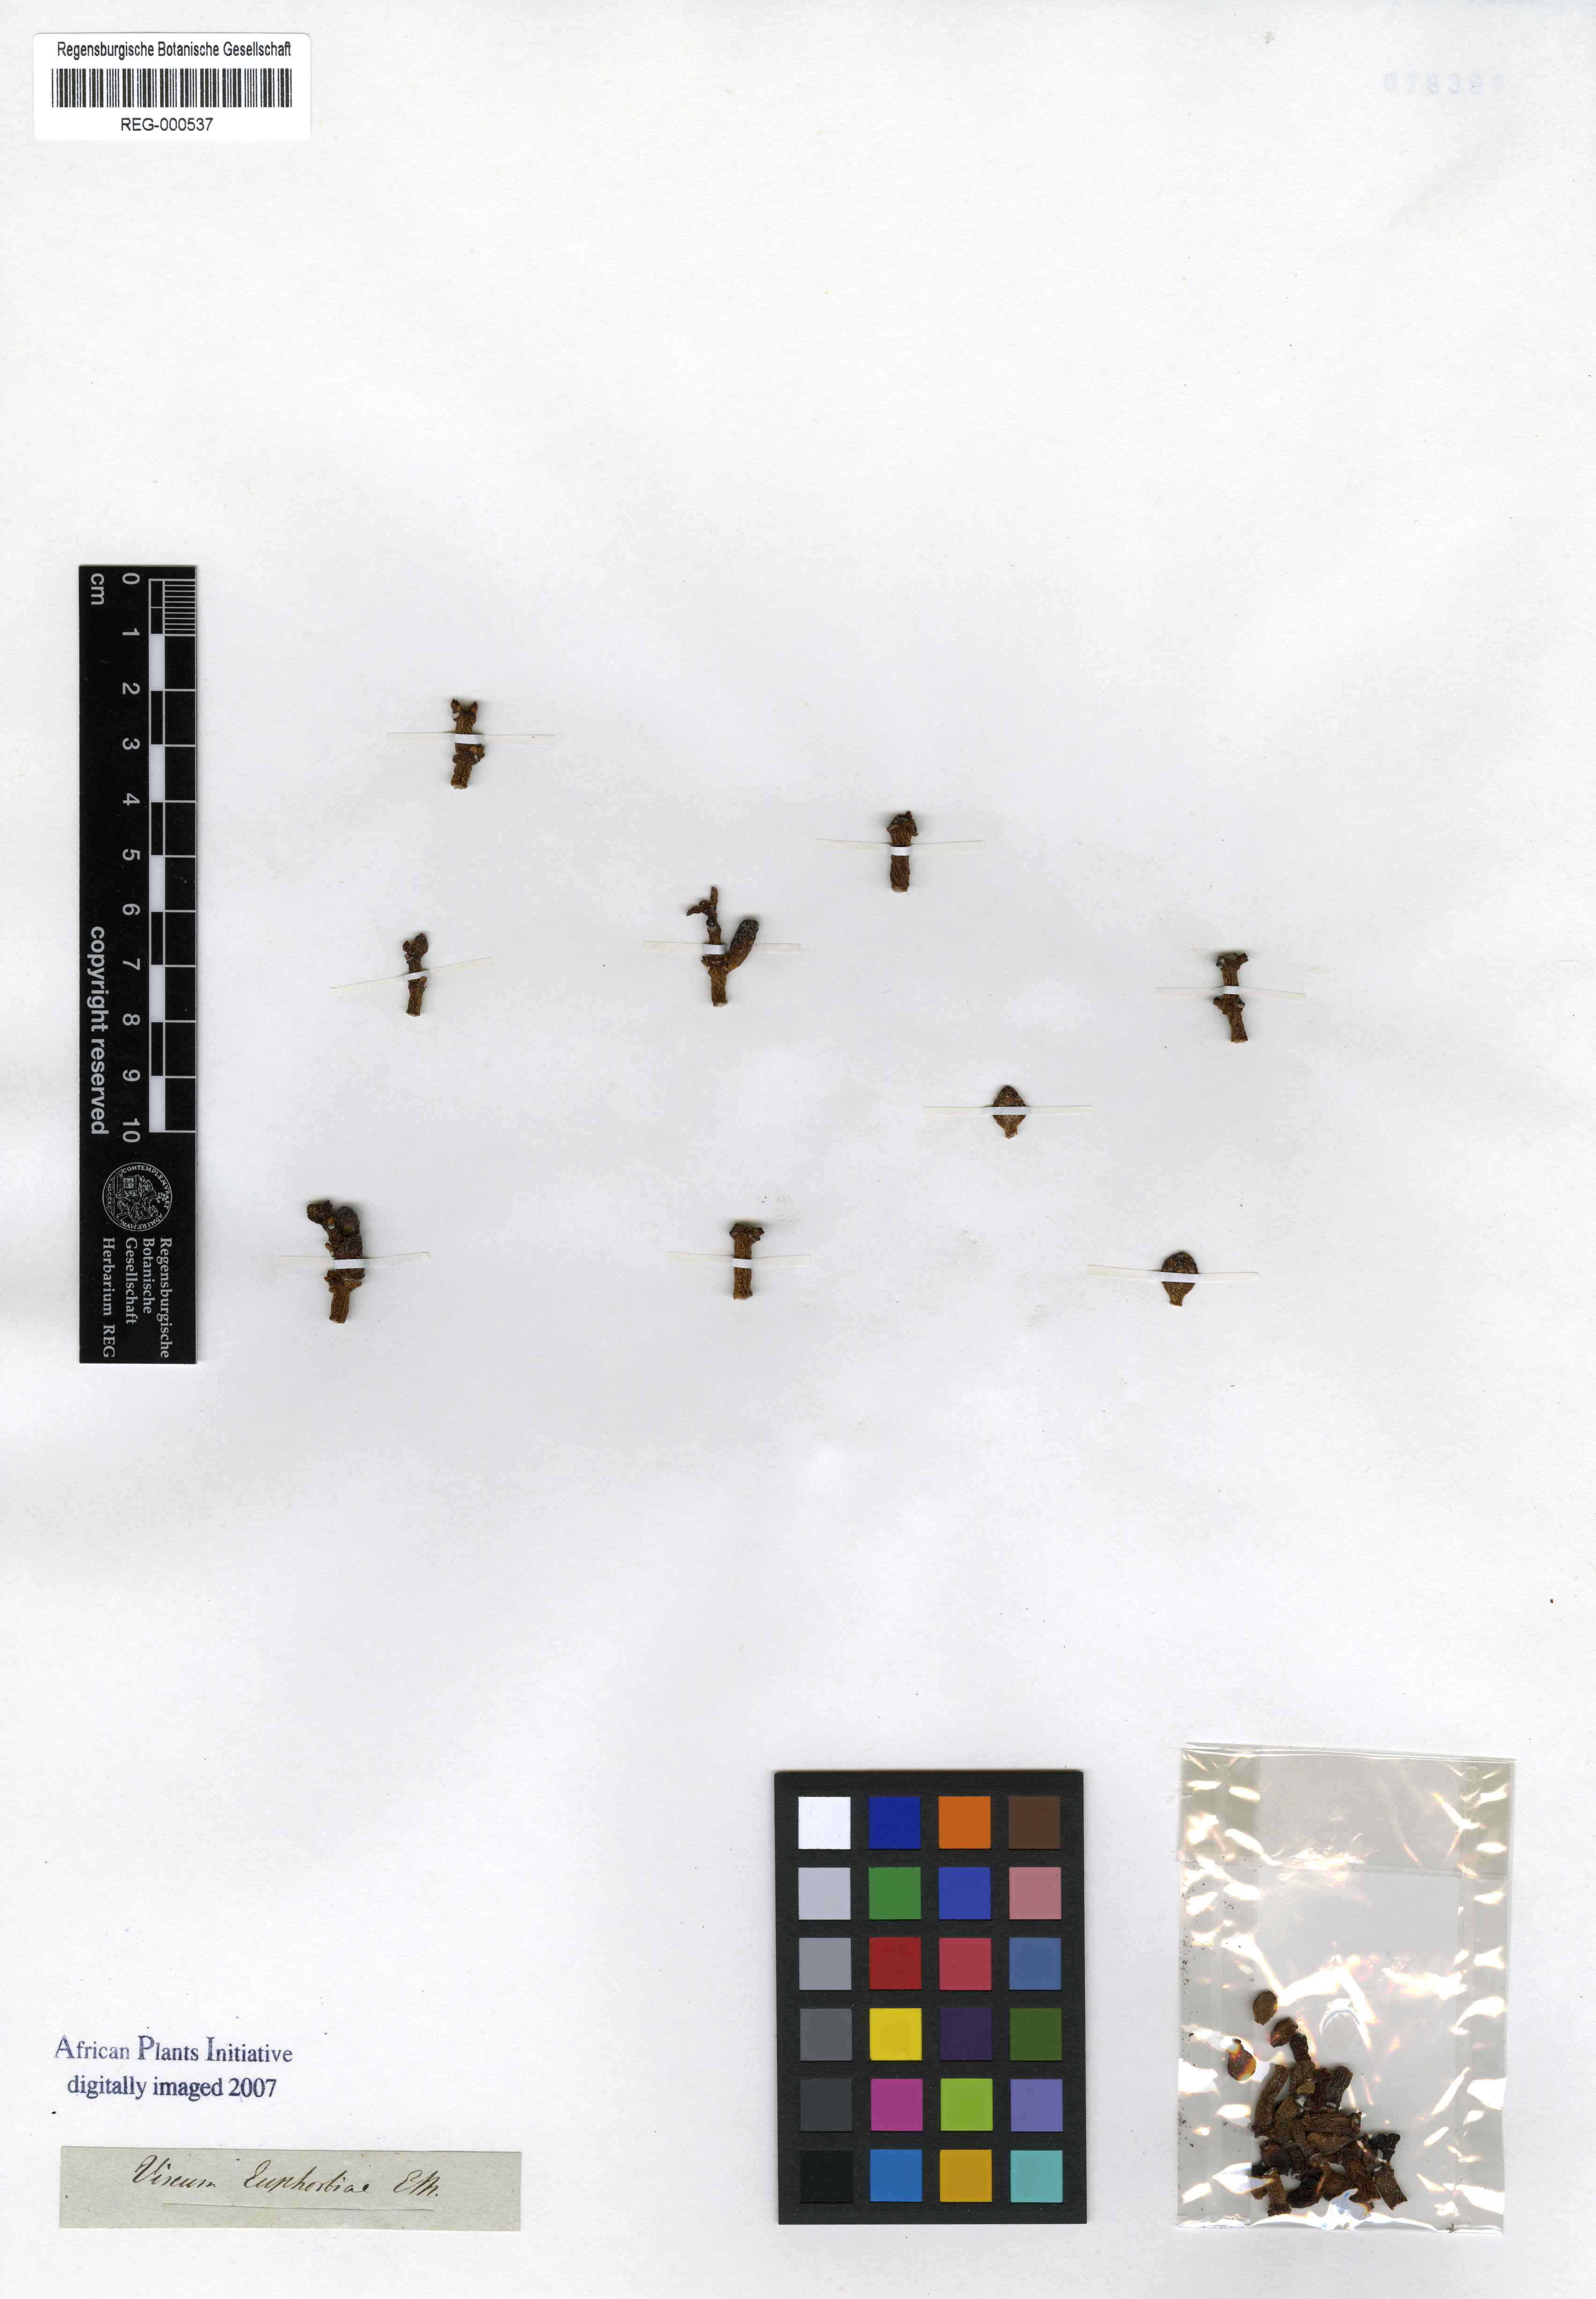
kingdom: Plantae
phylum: Tracheophyta
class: Magnoliopsida
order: Santalales
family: Viscaceae
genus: Viscum
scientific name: Viscum crassulae
